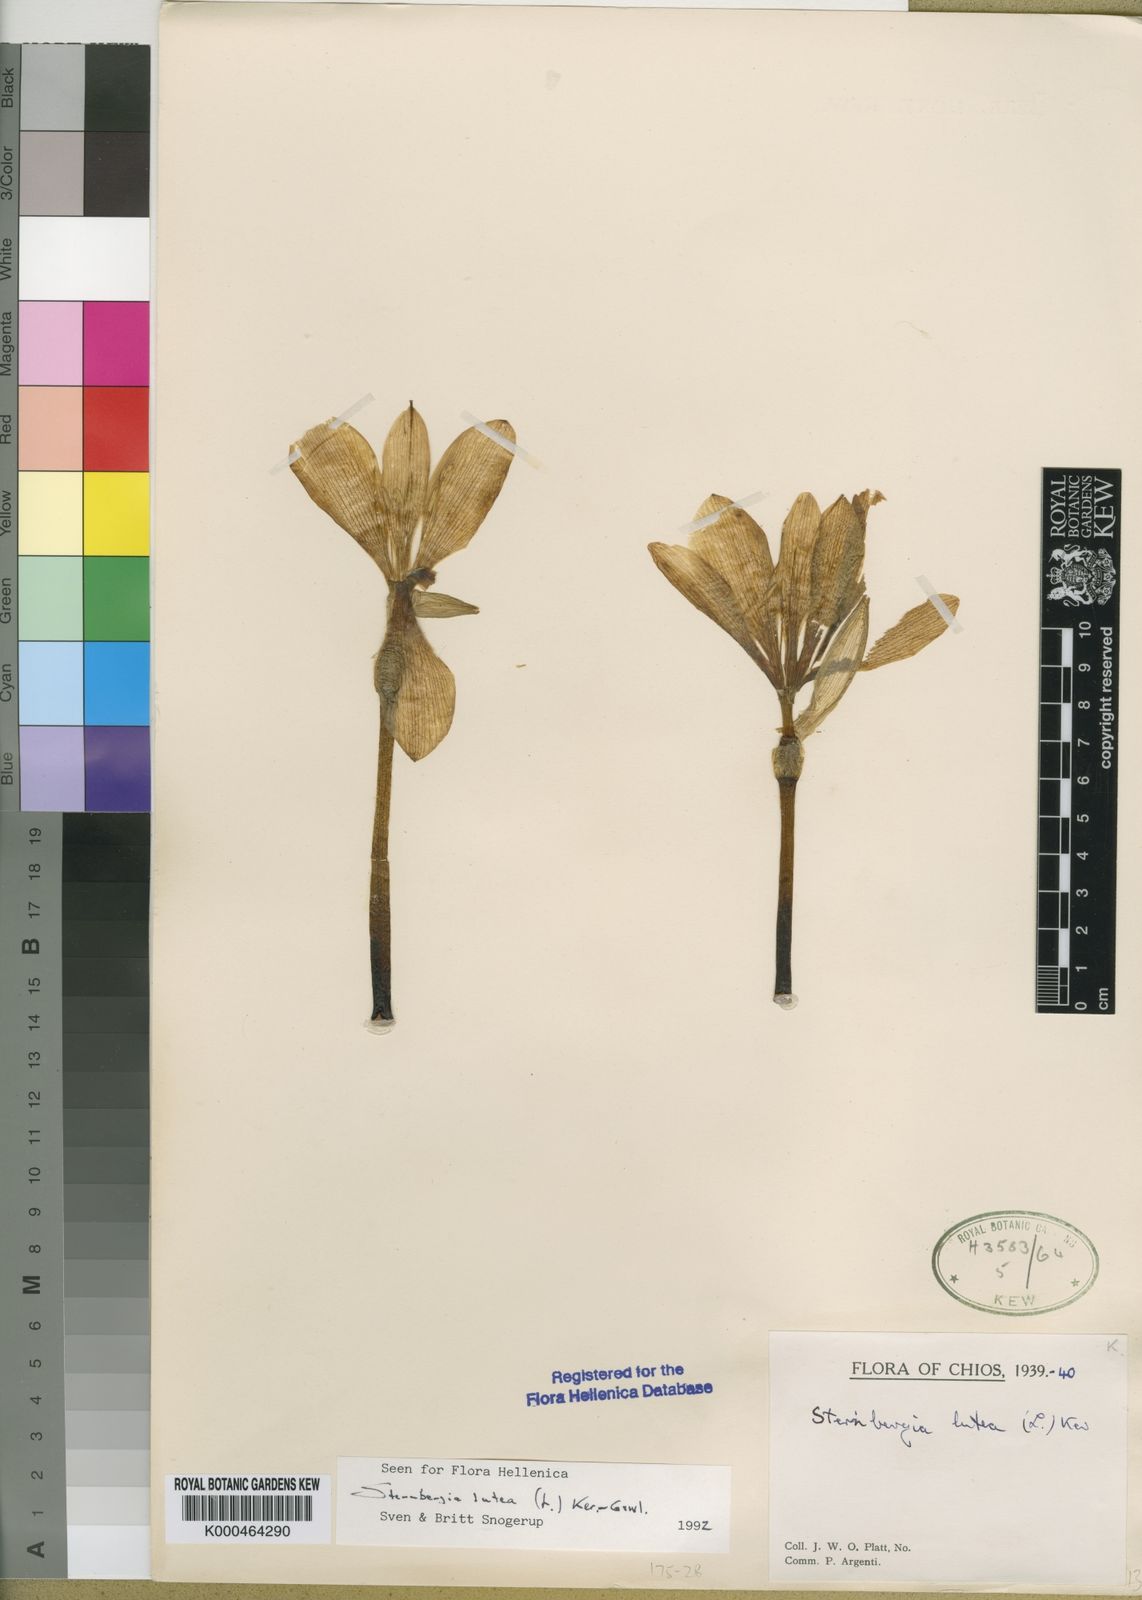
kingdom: Plantae
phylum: Tracheophyta
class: Liliopsida
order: Asparagales
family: Amaryllidaceae
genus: Sternbergia
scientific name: Sternbergia
